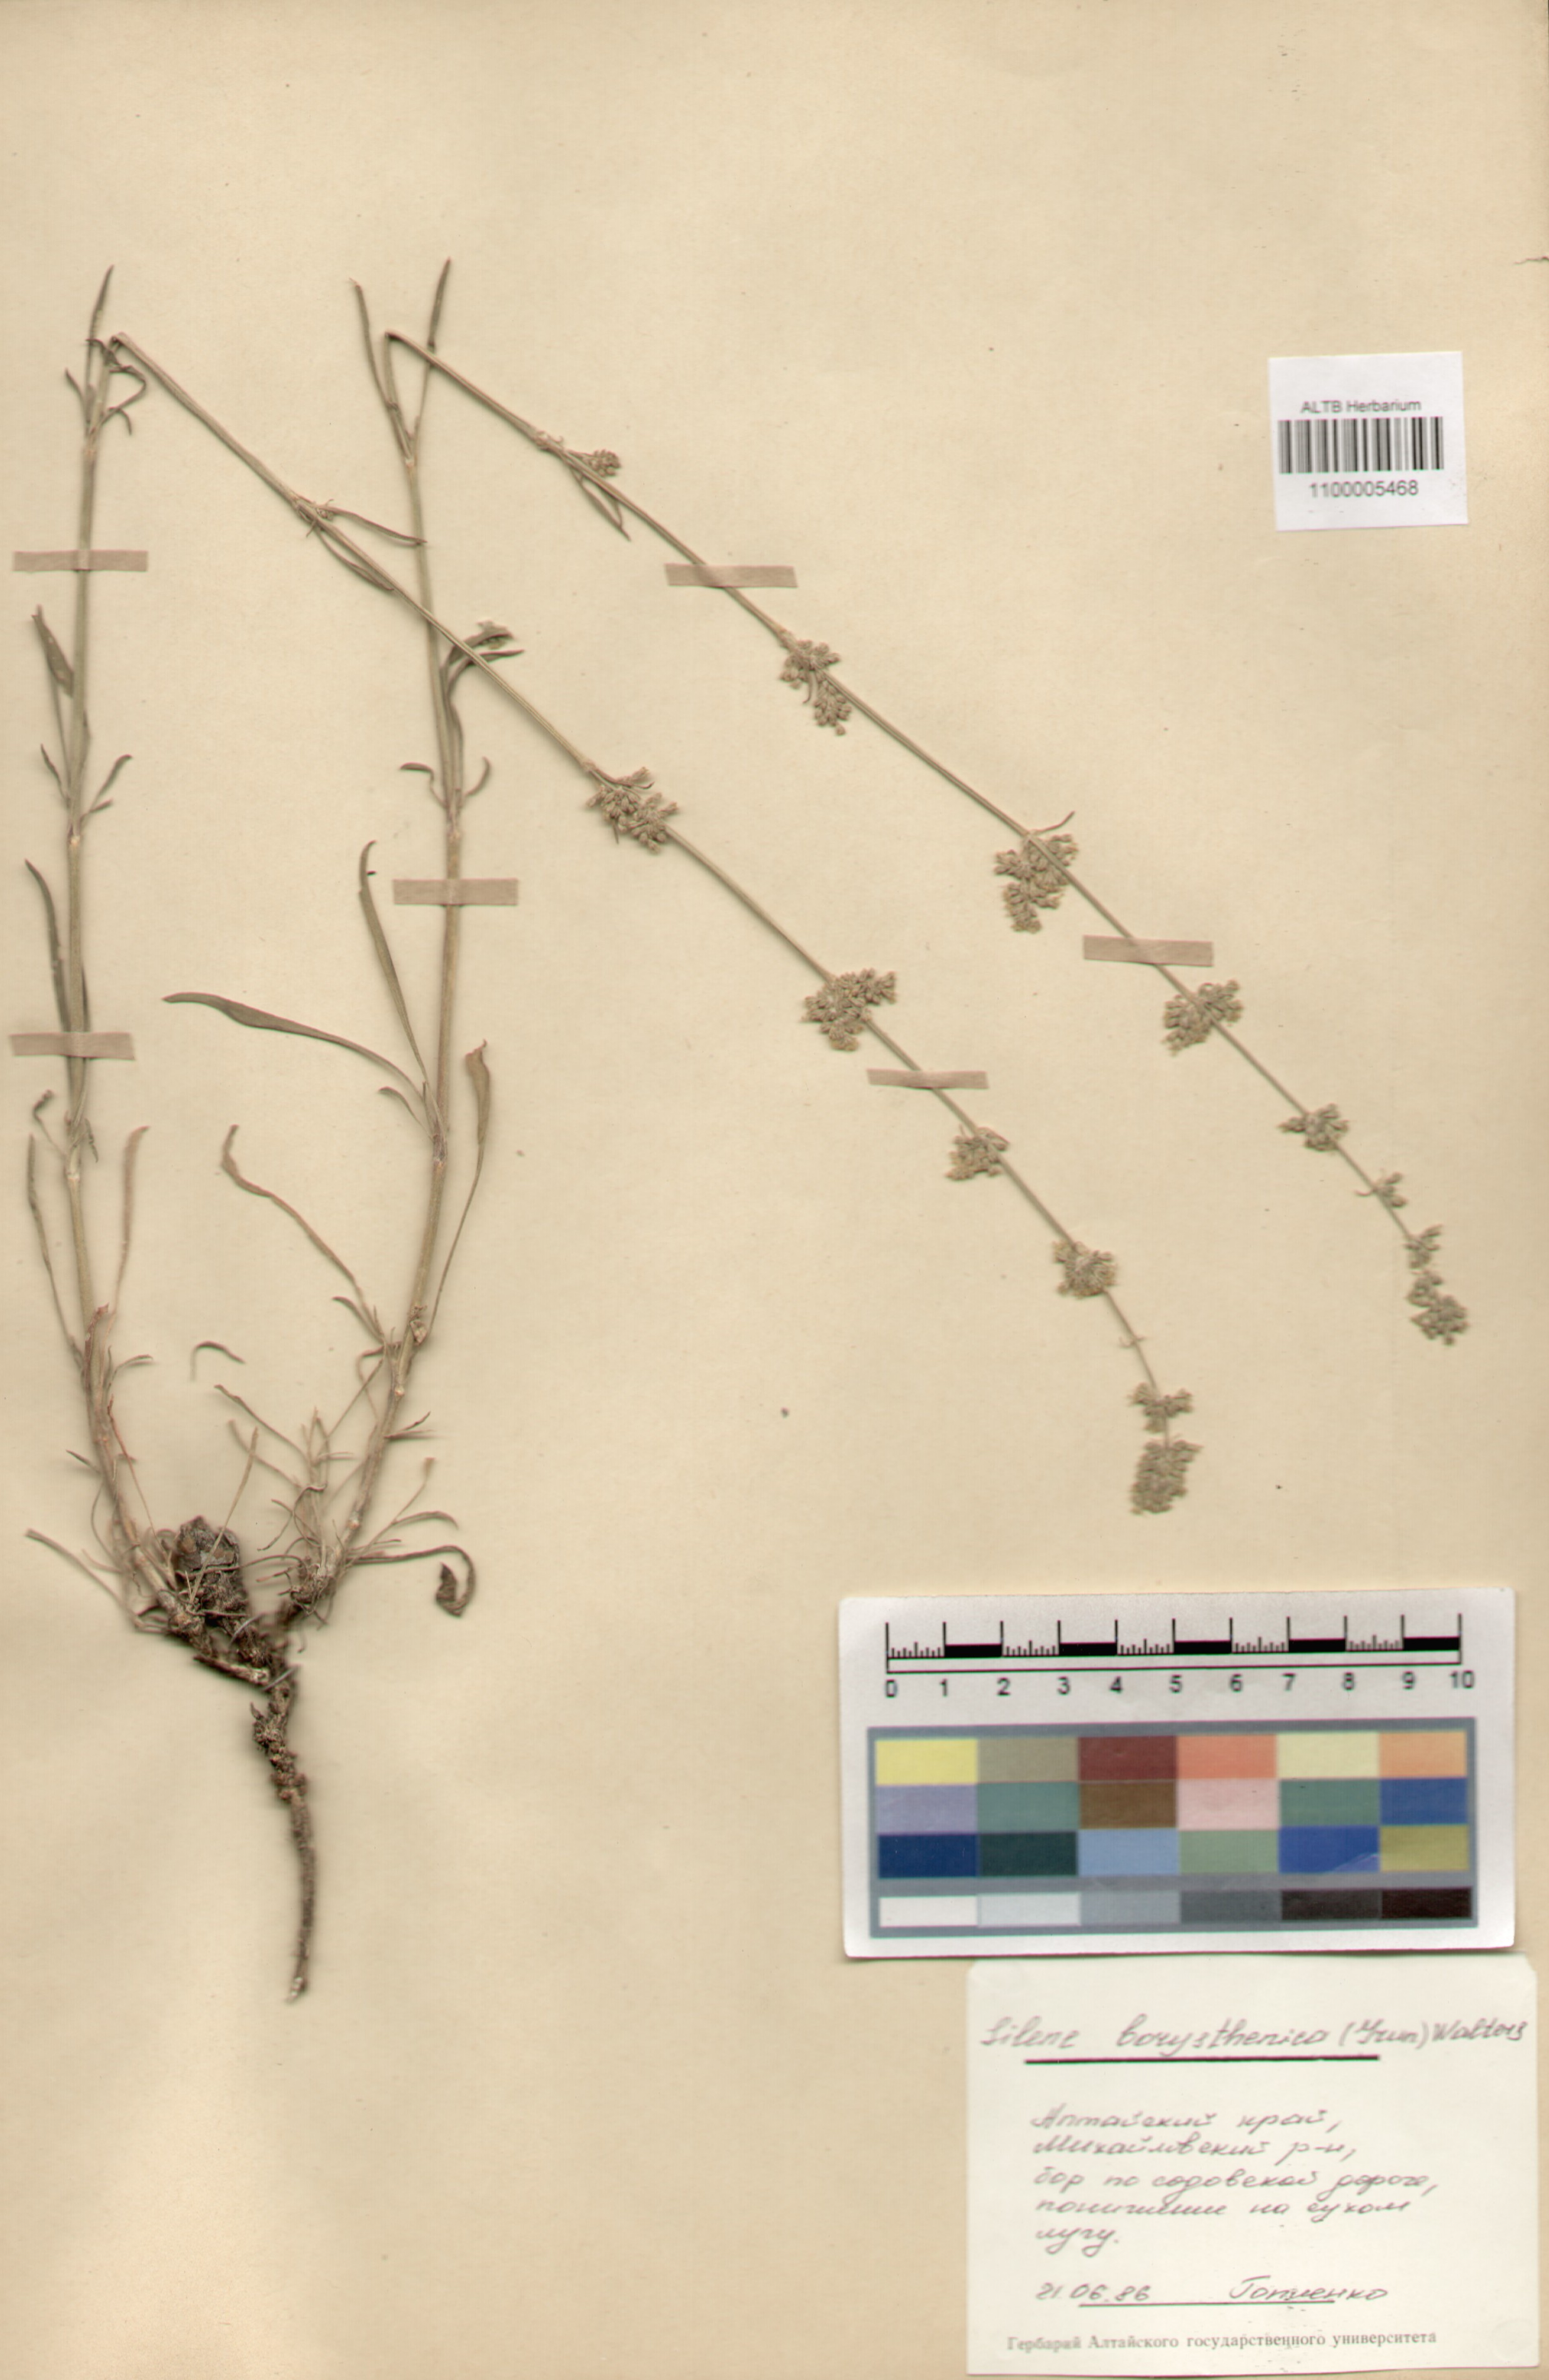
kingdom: Plantae
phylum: Tracheophyta
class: Magnoliopsida
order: Caryophyllales
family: Caryophyllaceae
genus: Silene
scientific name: Silene borysthenica
